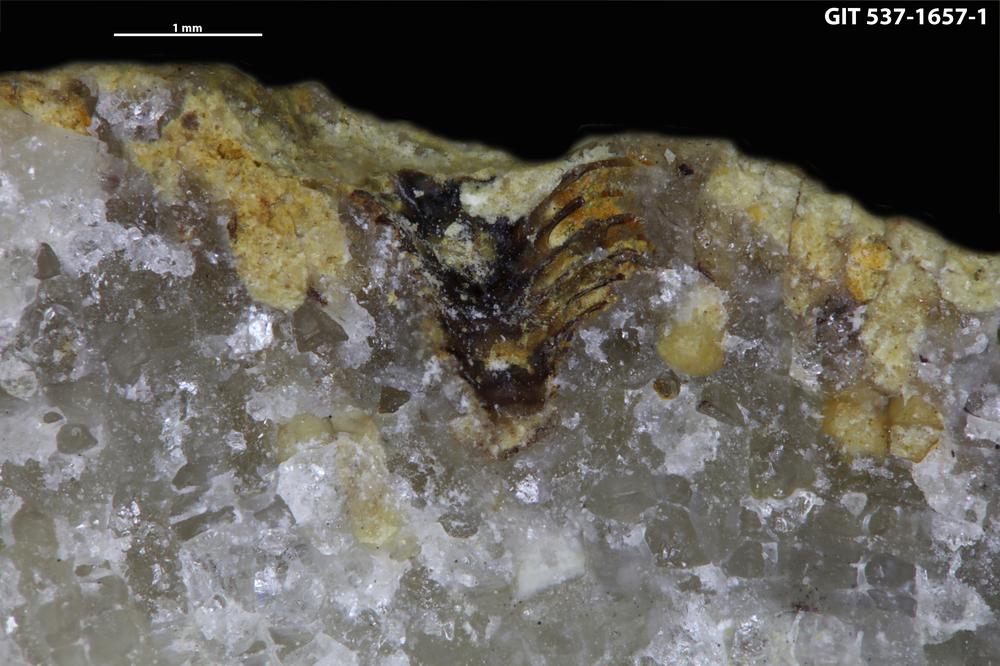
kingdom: Animalia
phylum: Cnidaria
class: Scyphozoa
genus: Climacoconus
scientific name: Climacoconus
